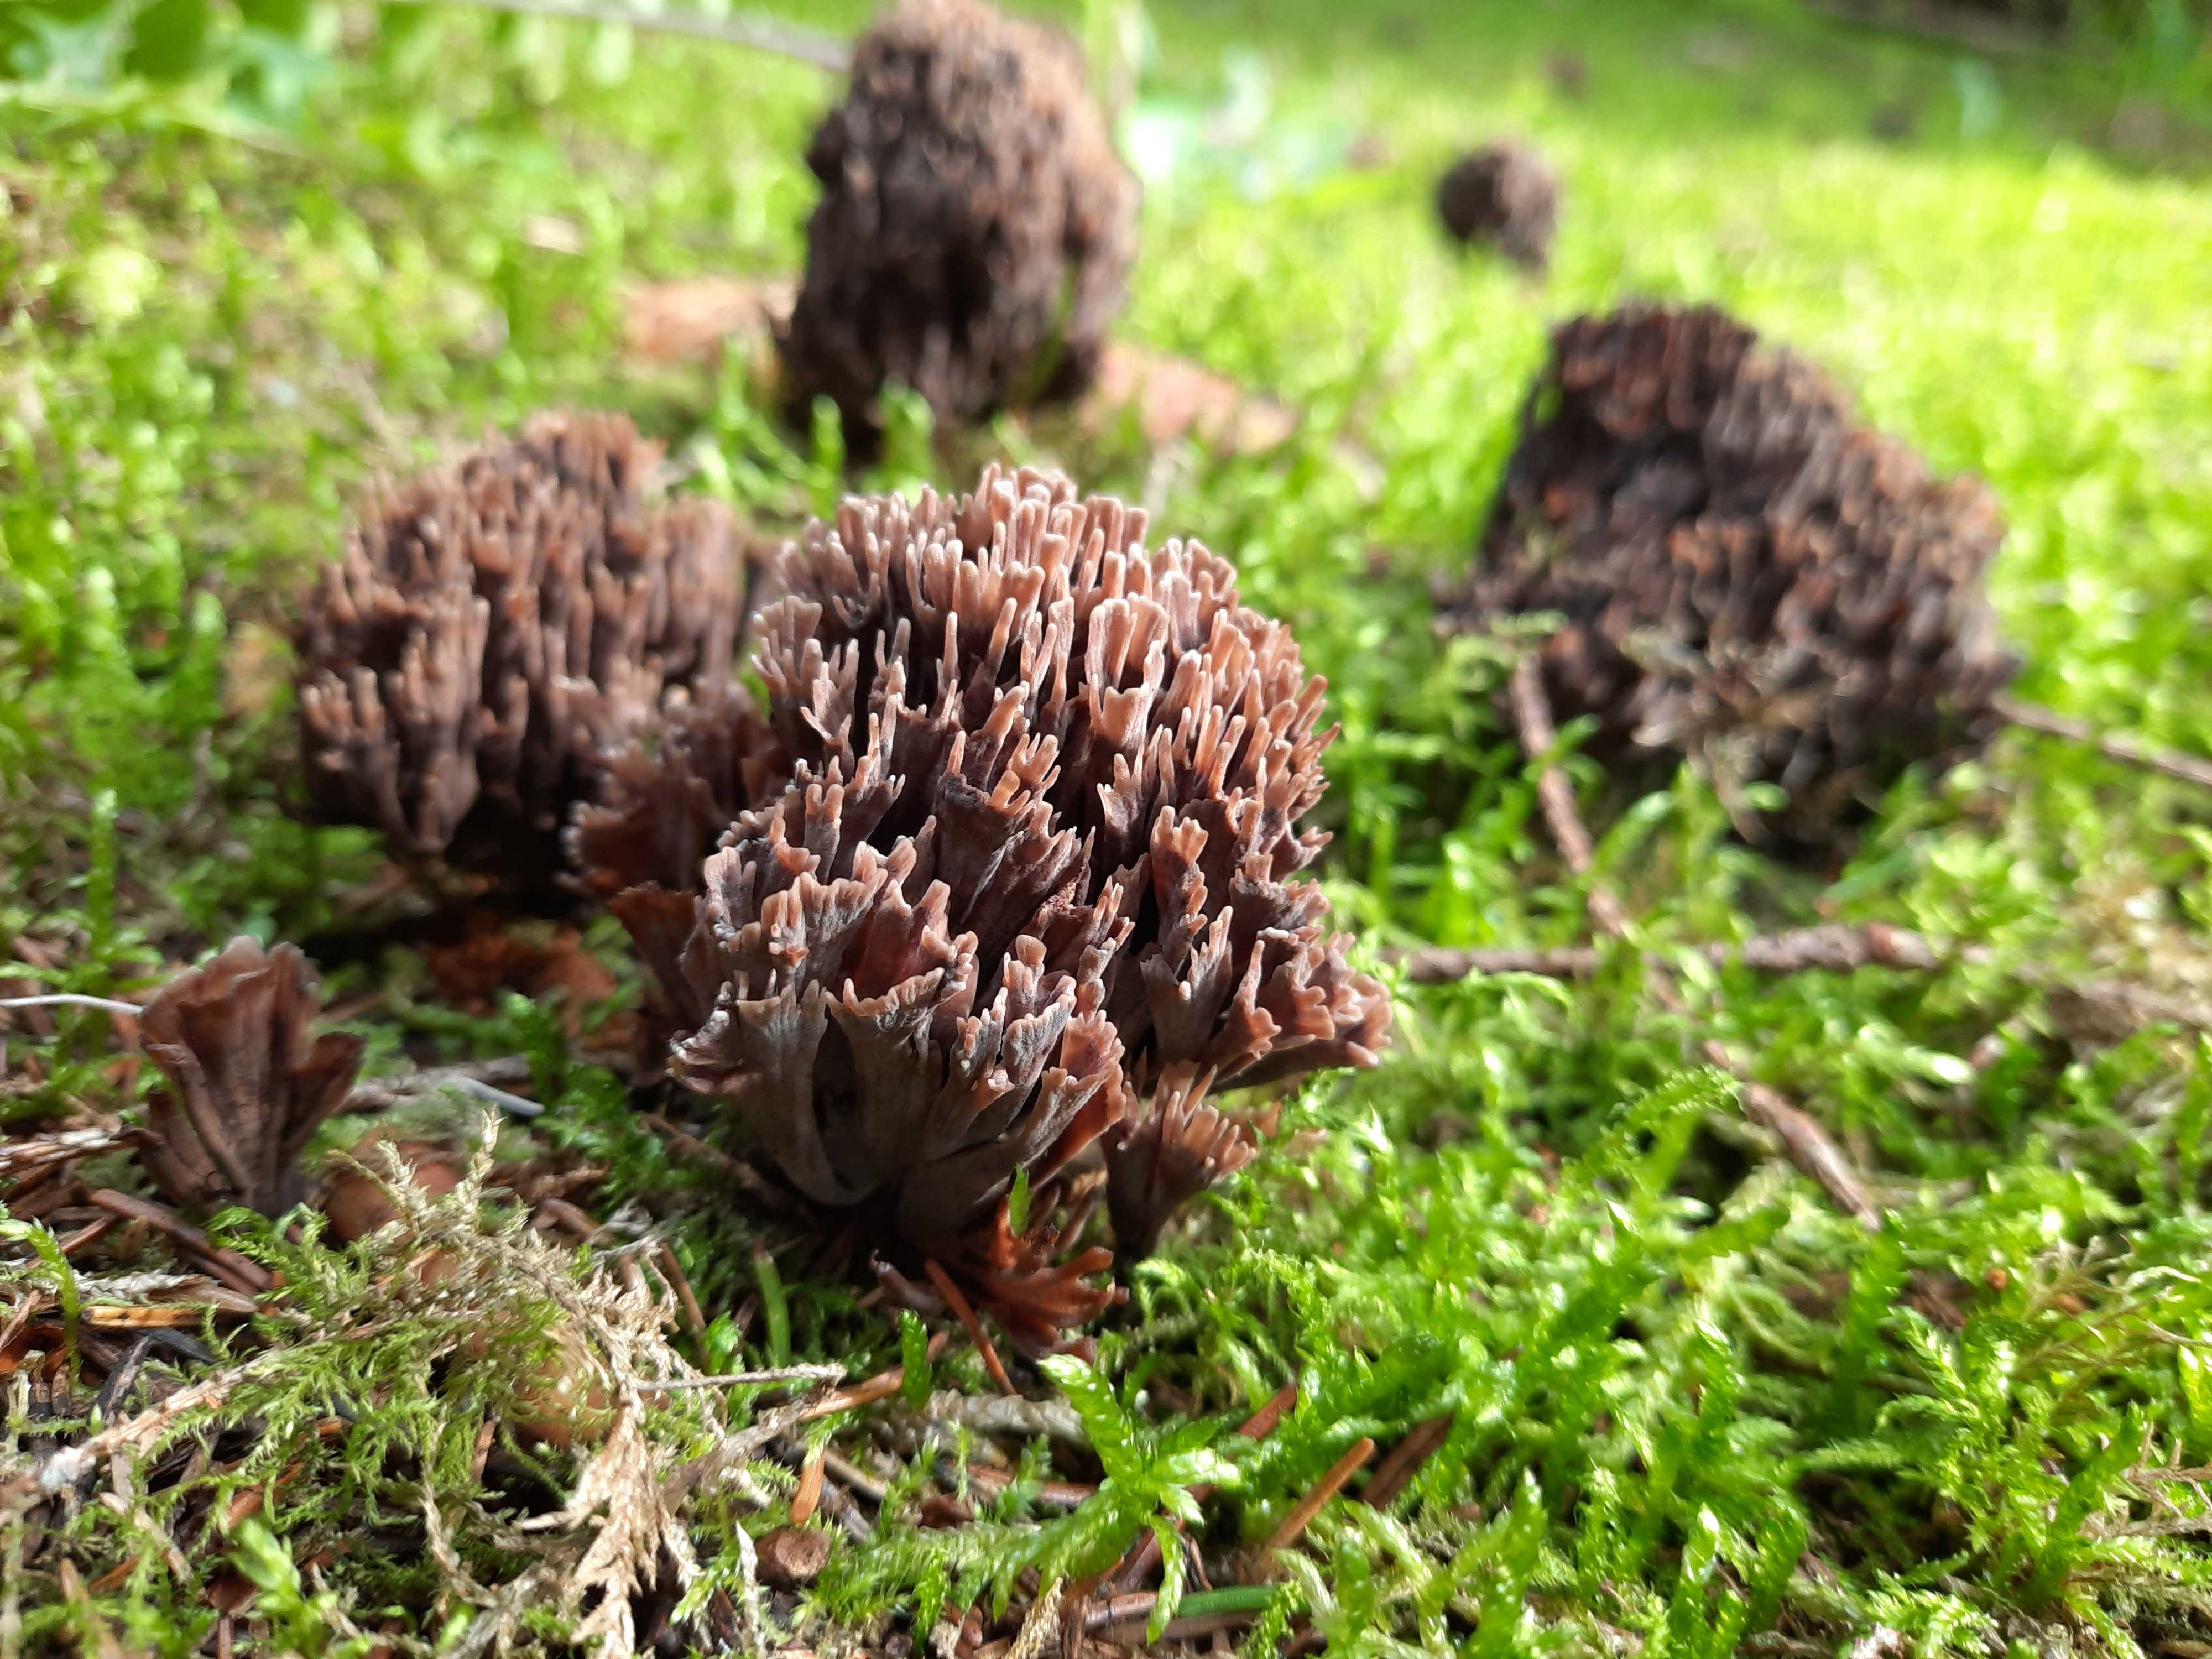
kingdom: Fungi
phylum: Basidiomycota
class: Agaricomycetes
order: Thelephorales
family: Thelephoraceae
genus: Thelephora
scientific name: Thelephora palmata
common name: grenet frynsesvamp
